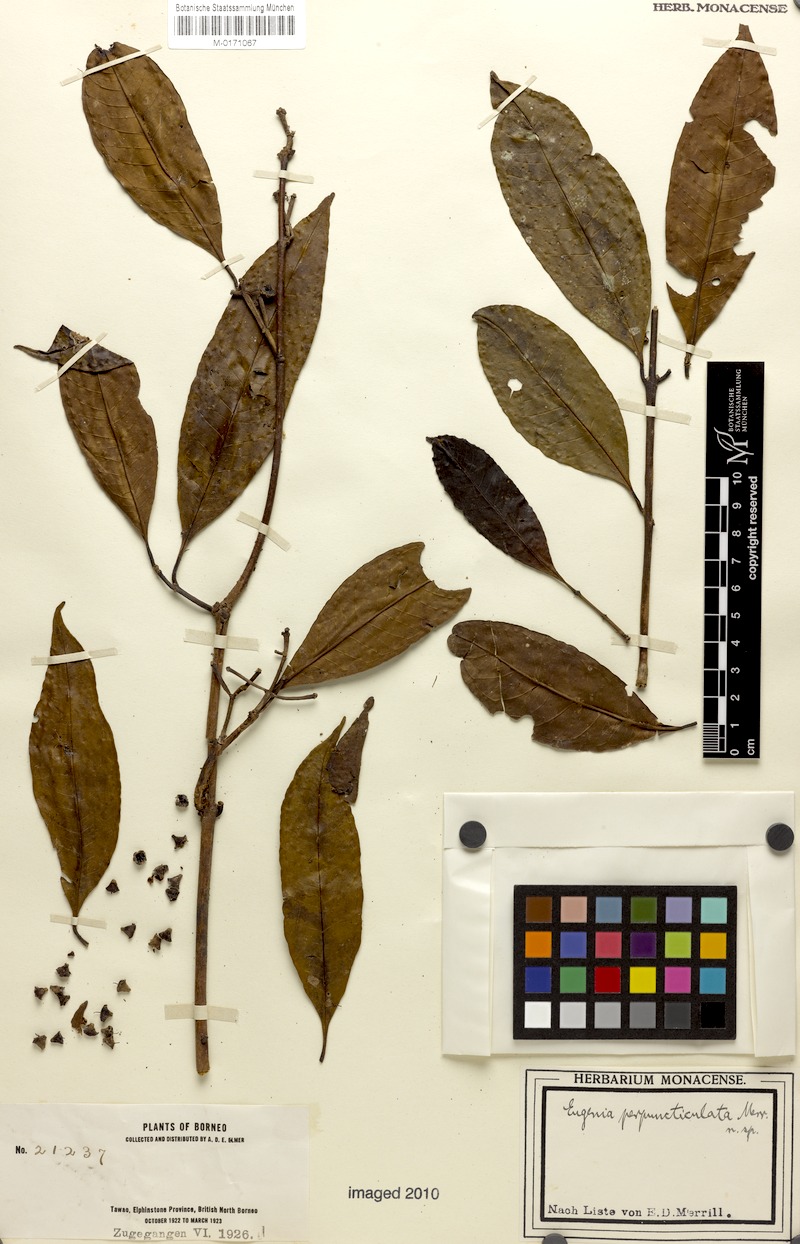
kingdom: Plantae
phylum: Tracheophyta
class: Magnoliopsida
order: Myrtales
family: Myrtaceae
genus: Syzygium
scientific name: Syzygium pustulatum
